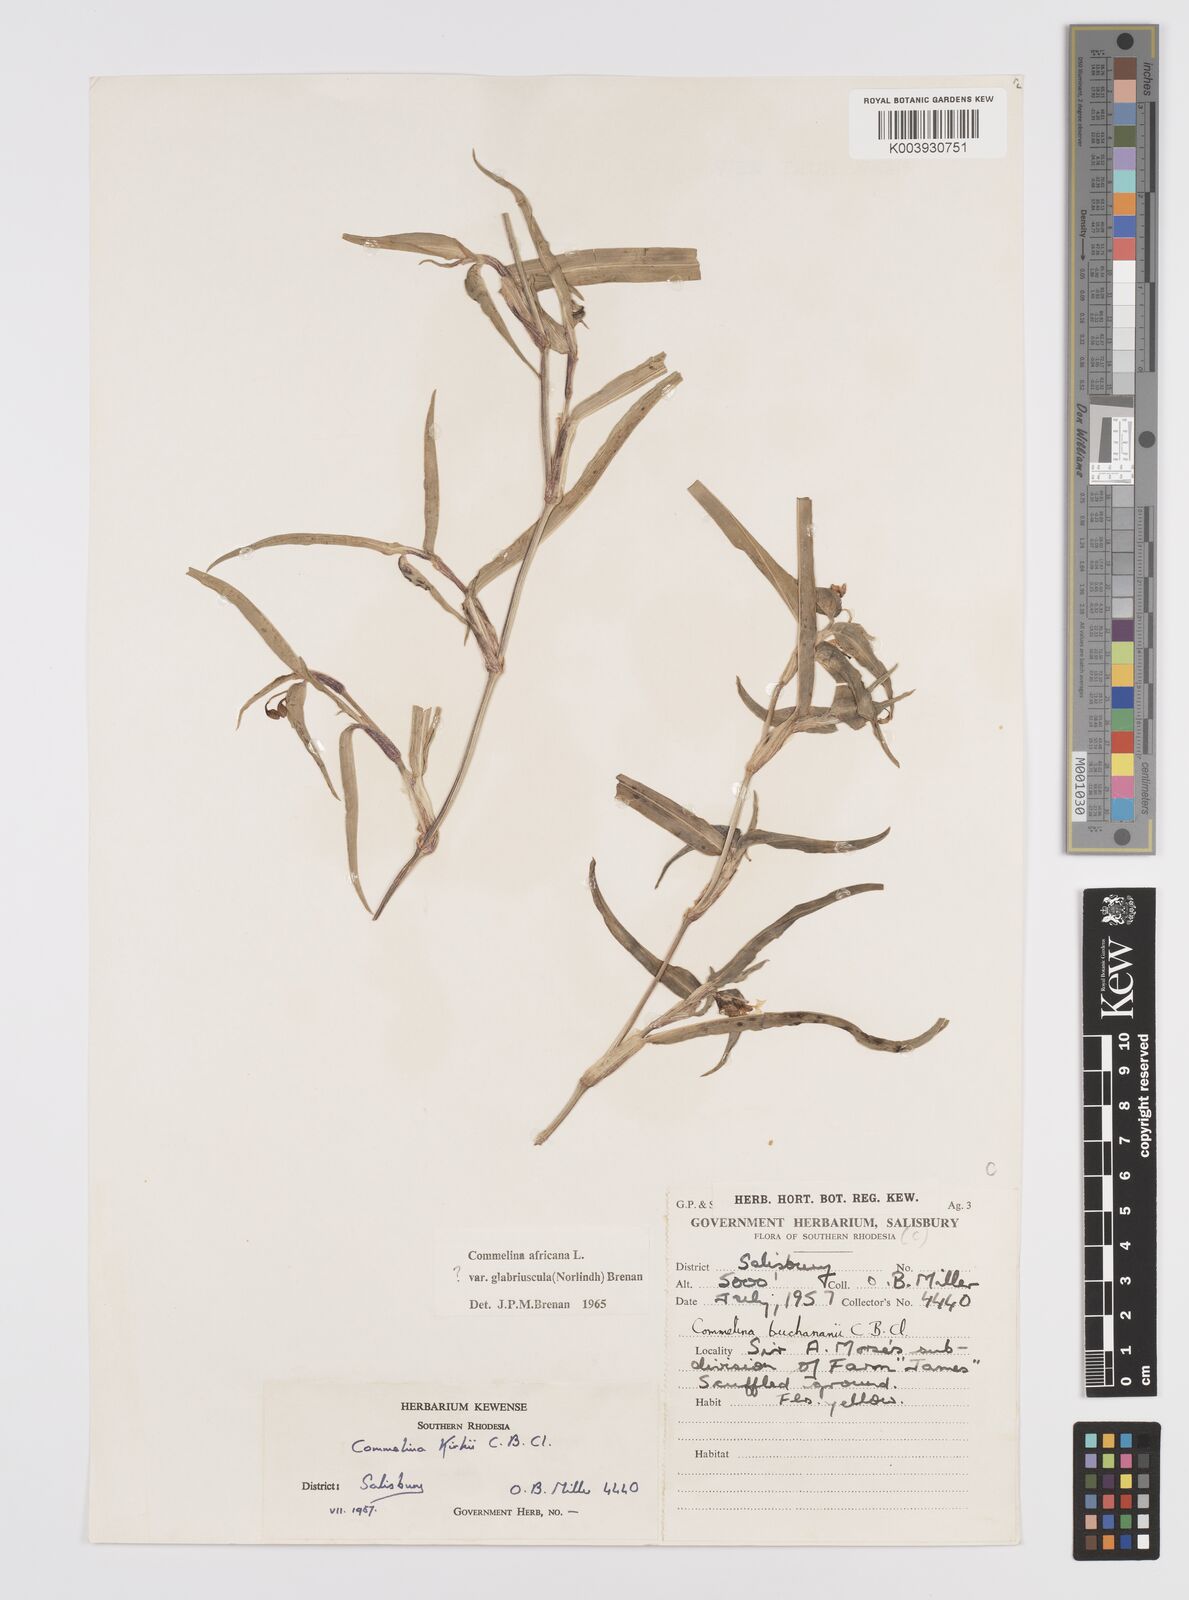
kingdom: Plantae
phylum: Tracheophyta
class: Liliopsida
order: Commelinales
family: Commelinaceae
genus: Commelina
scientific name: Commelina africana
